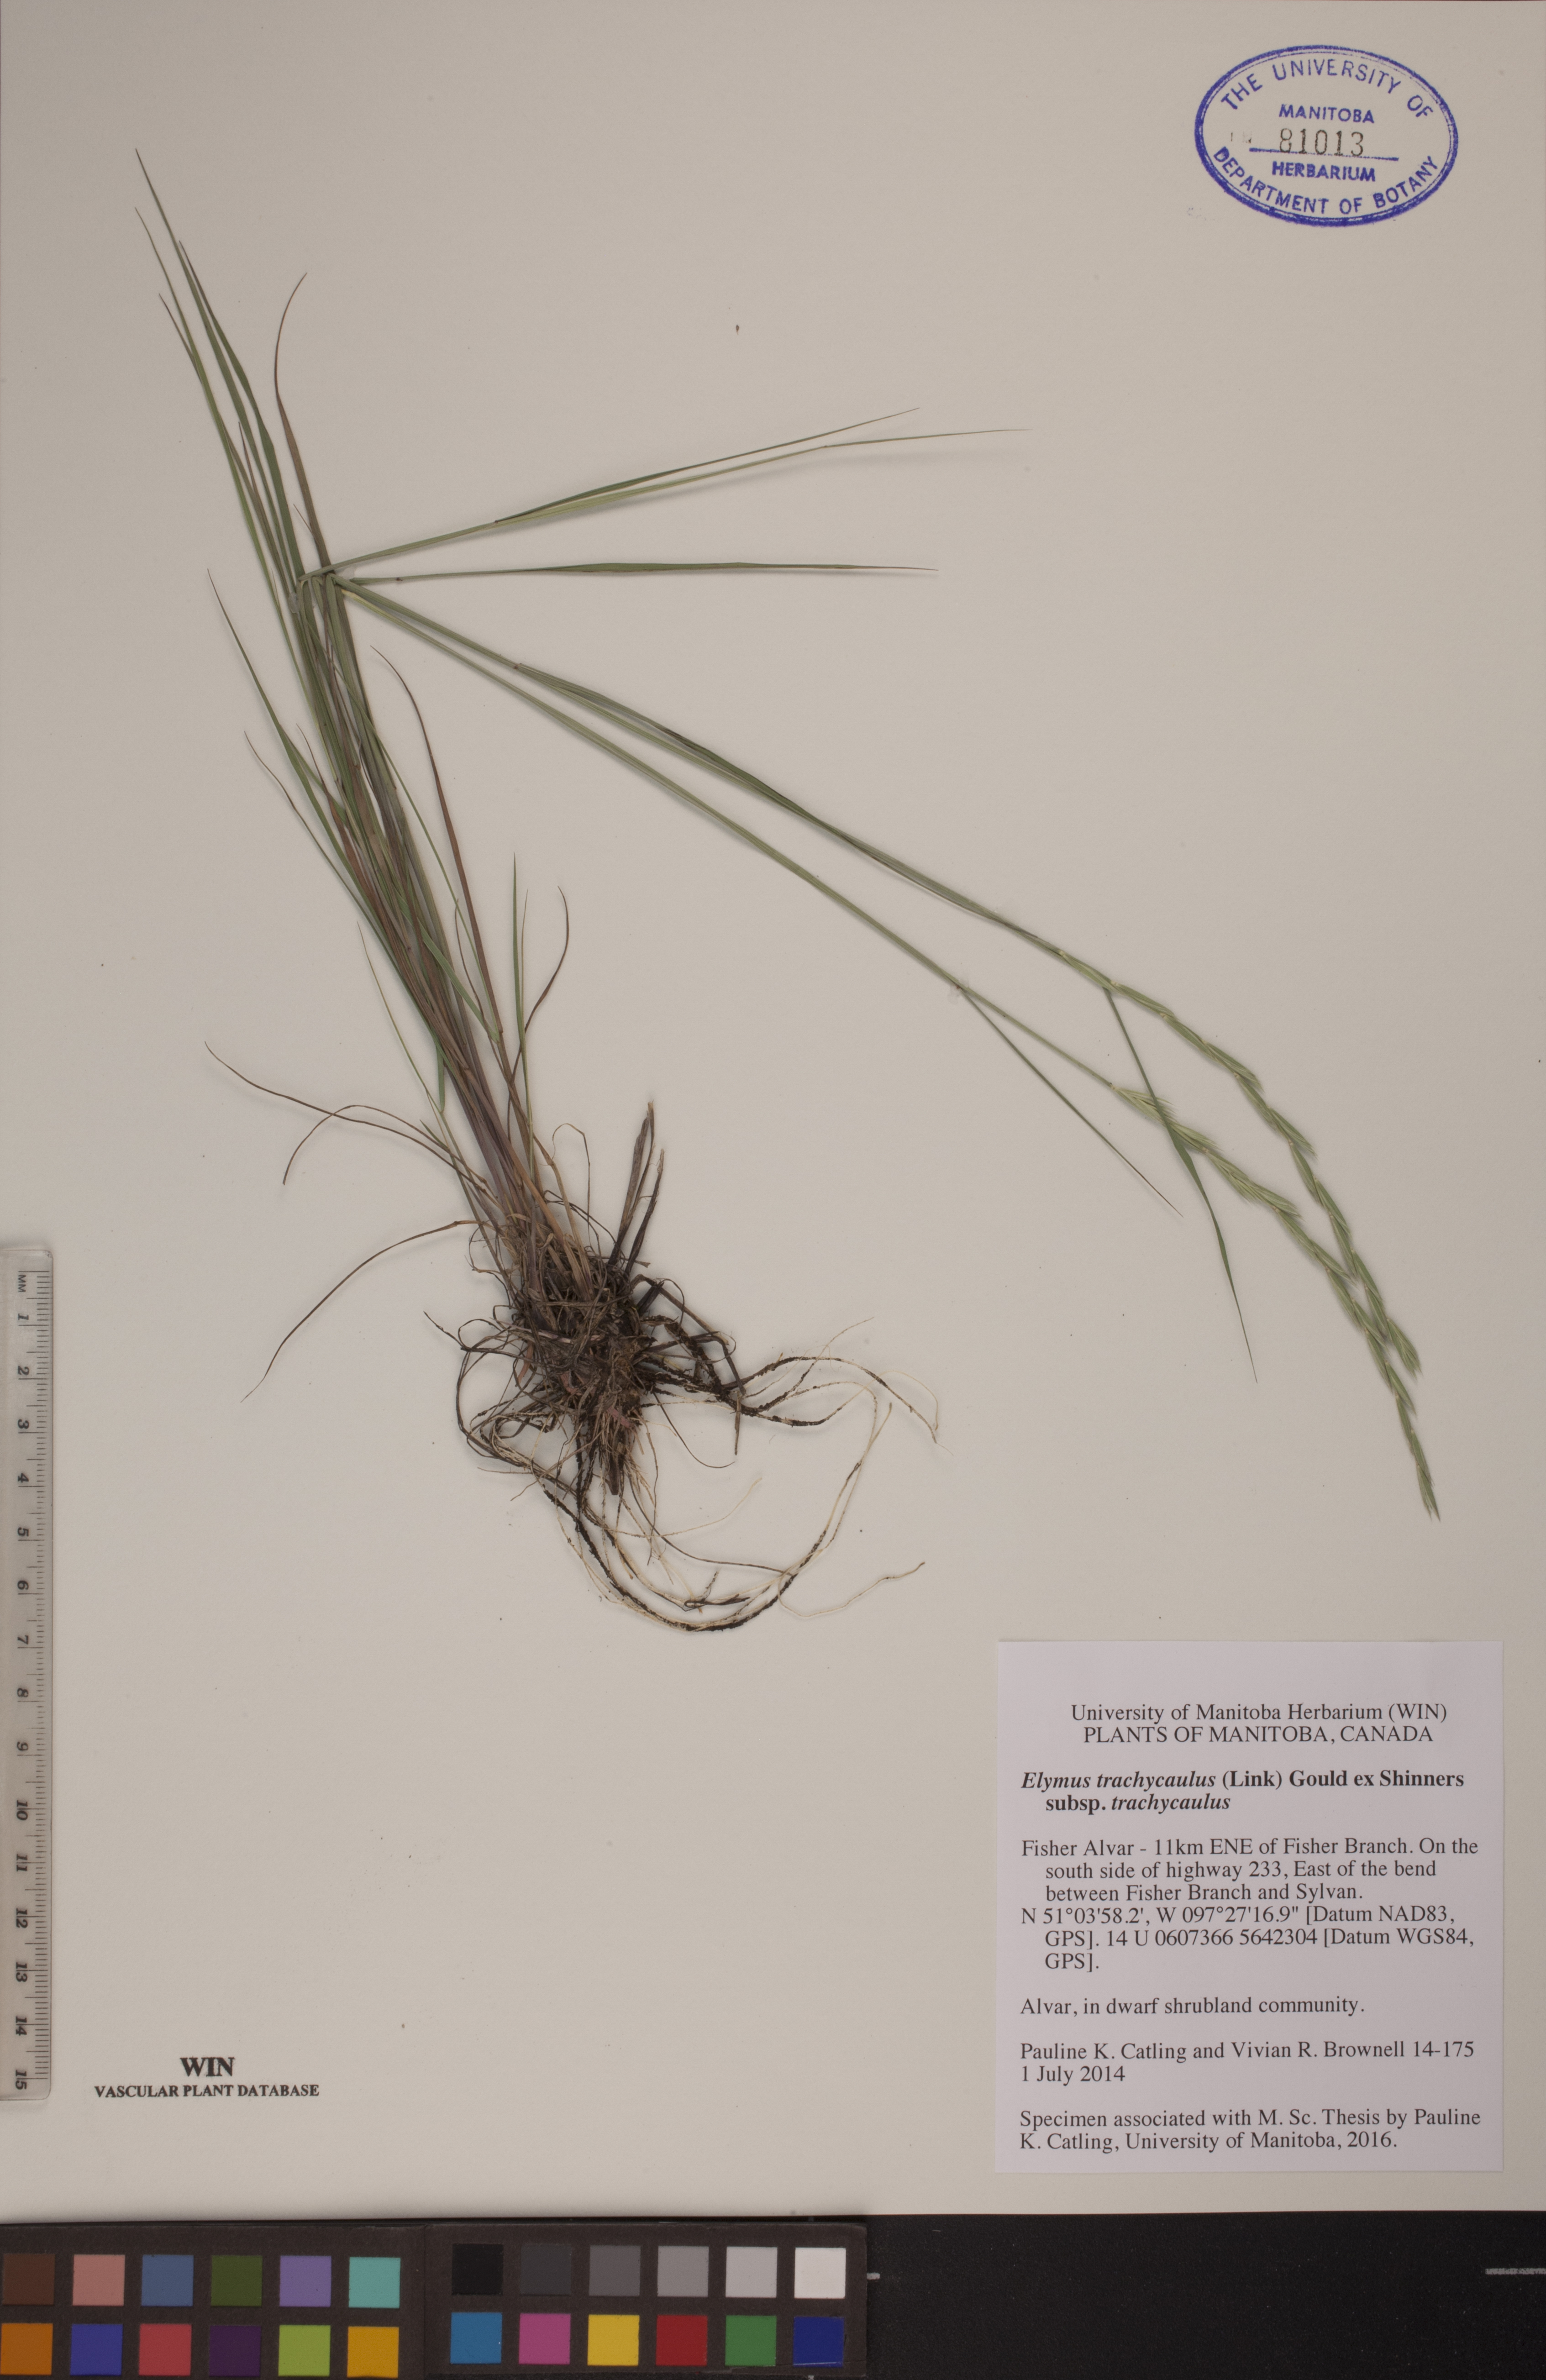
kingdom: Plantae
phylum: Tracheophyta
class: Liliopsida
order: Poales
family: Poaceae
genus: Elymus
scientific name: Elymus violaceus
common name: Arctic wheatgrass
